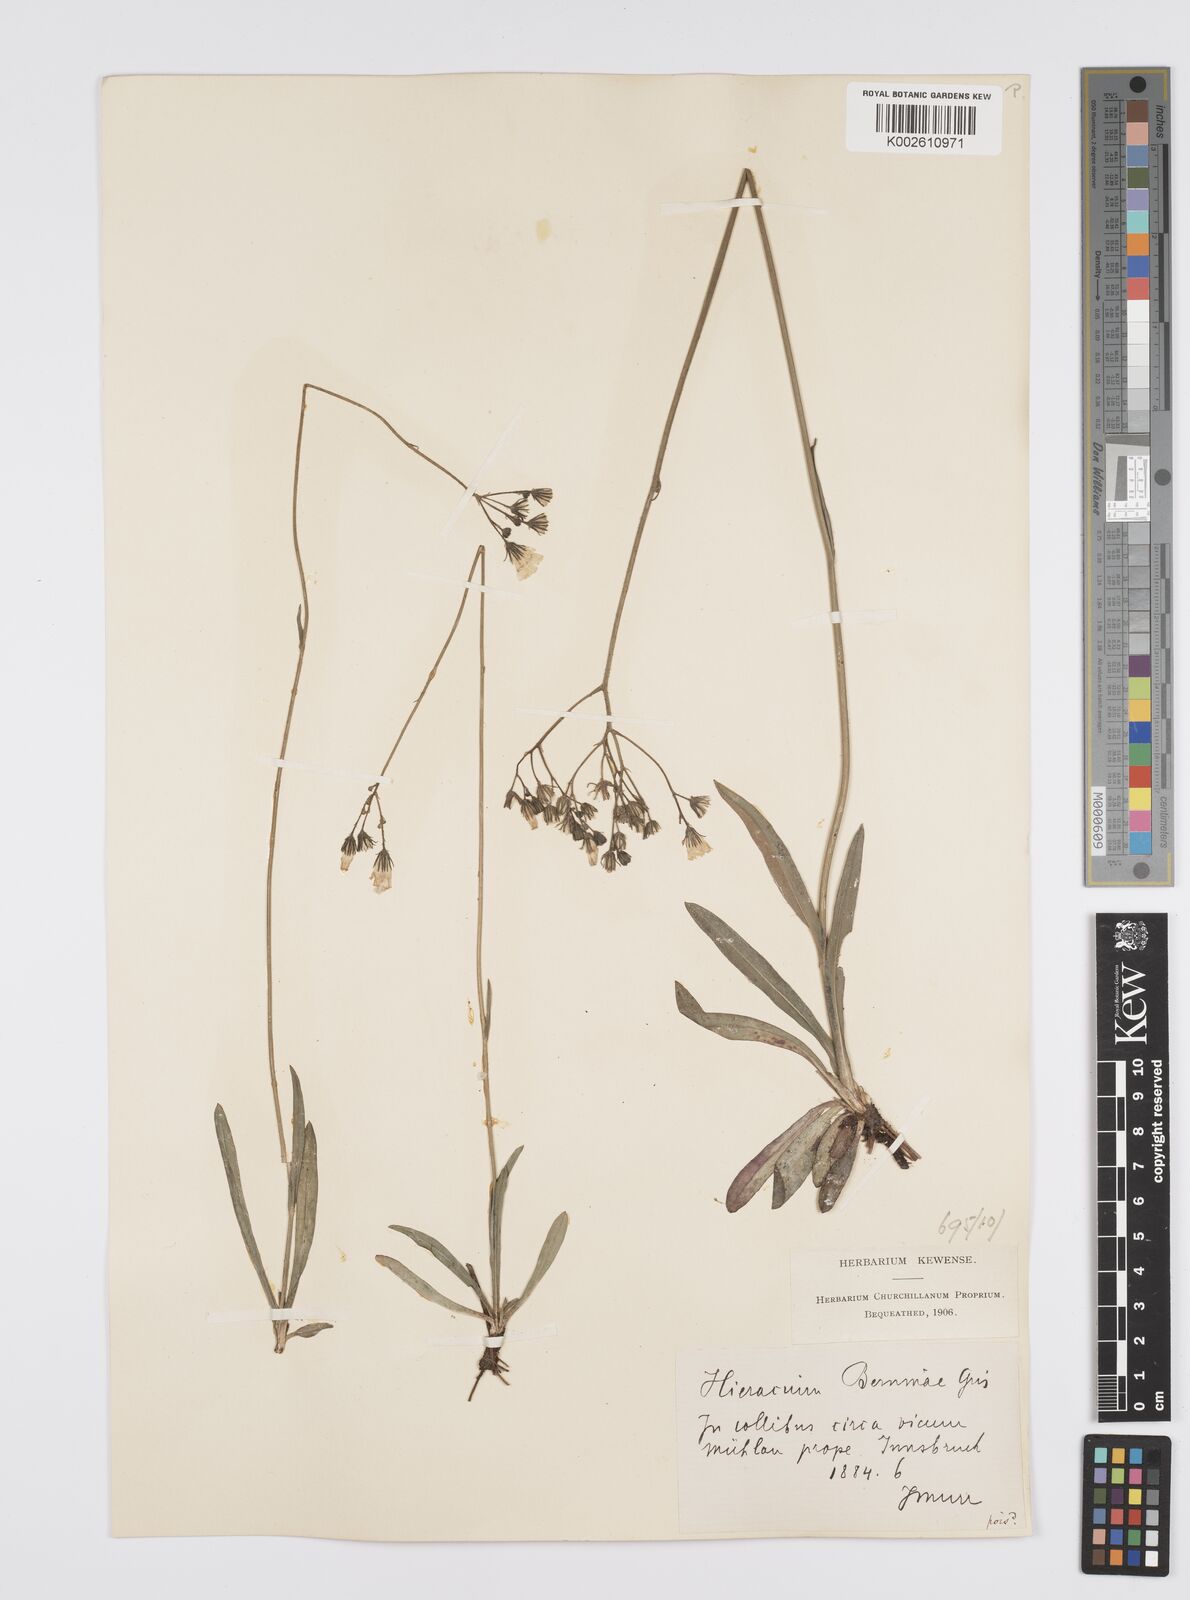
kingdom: Plantae
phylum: Tracheophyta
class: Magnoliopsida
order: Asterales
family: Asteraceae
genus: Pilosella
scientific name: Pilosella piloselloides
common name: Glaucous king-devil
